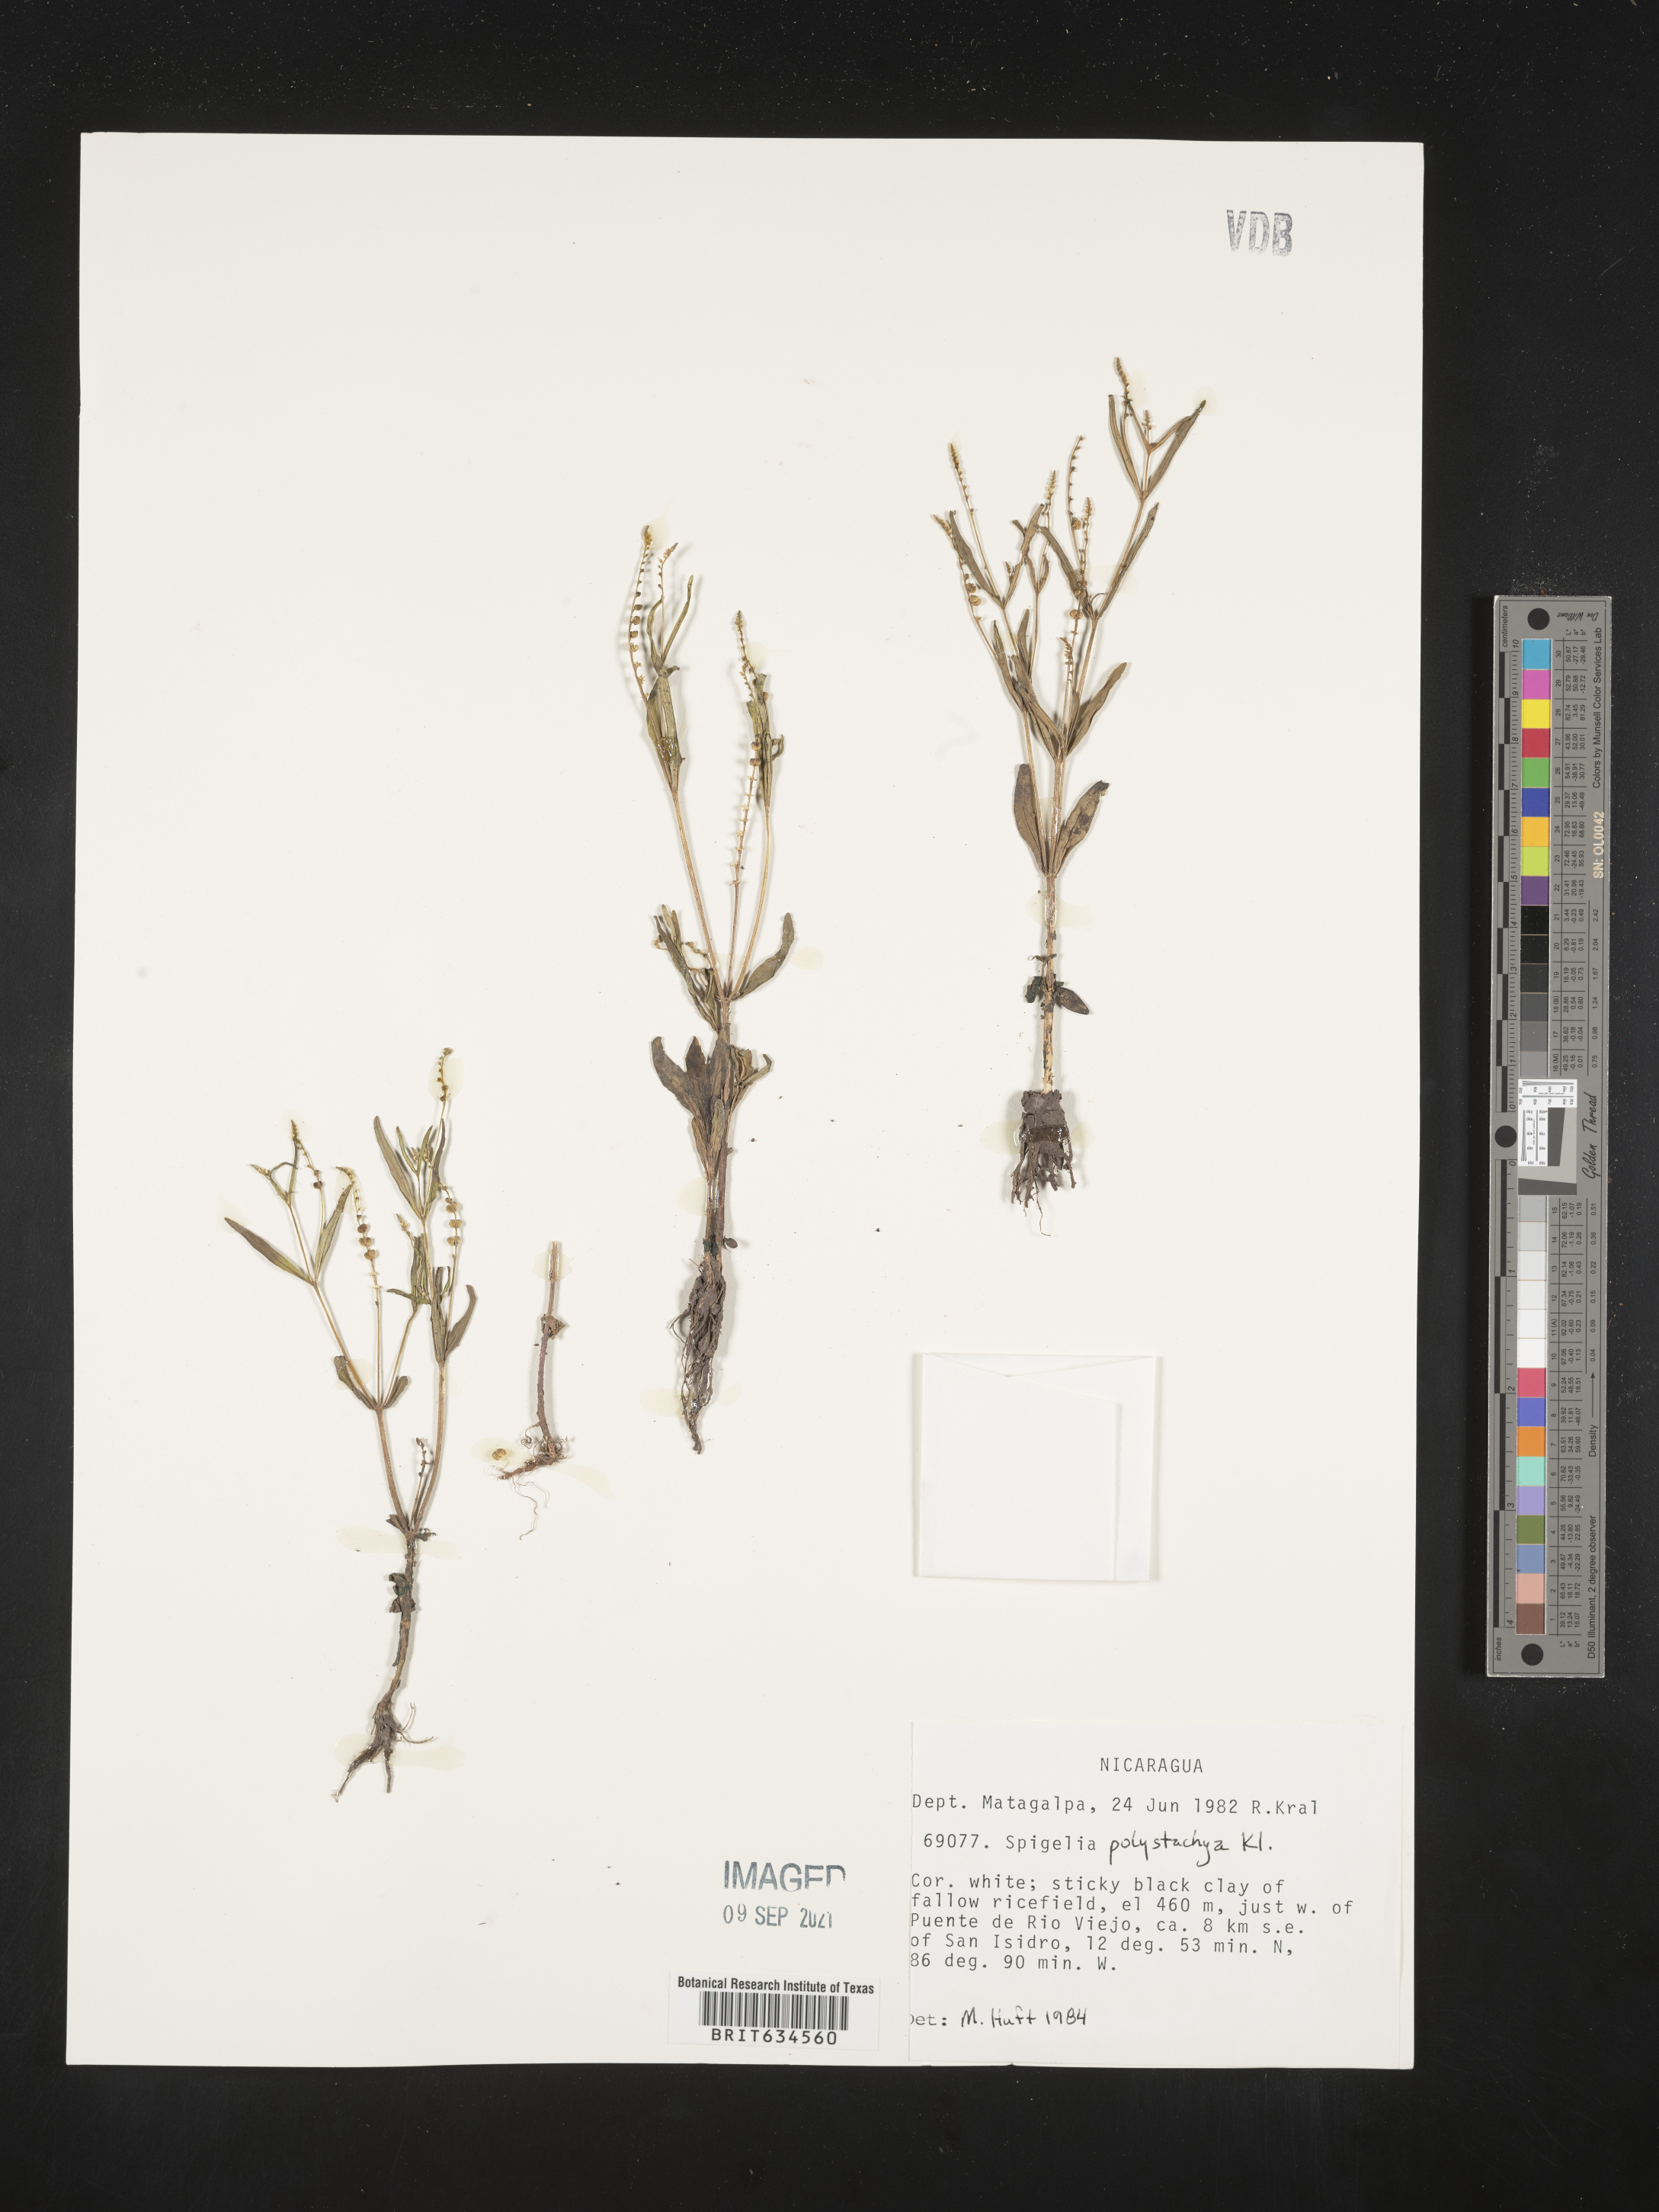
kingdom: Plantae
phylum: Tracheophyta
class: Magnoliopsida
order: Gentianales
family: Loganiaceae
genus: Spigelia
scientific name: Spigelia
